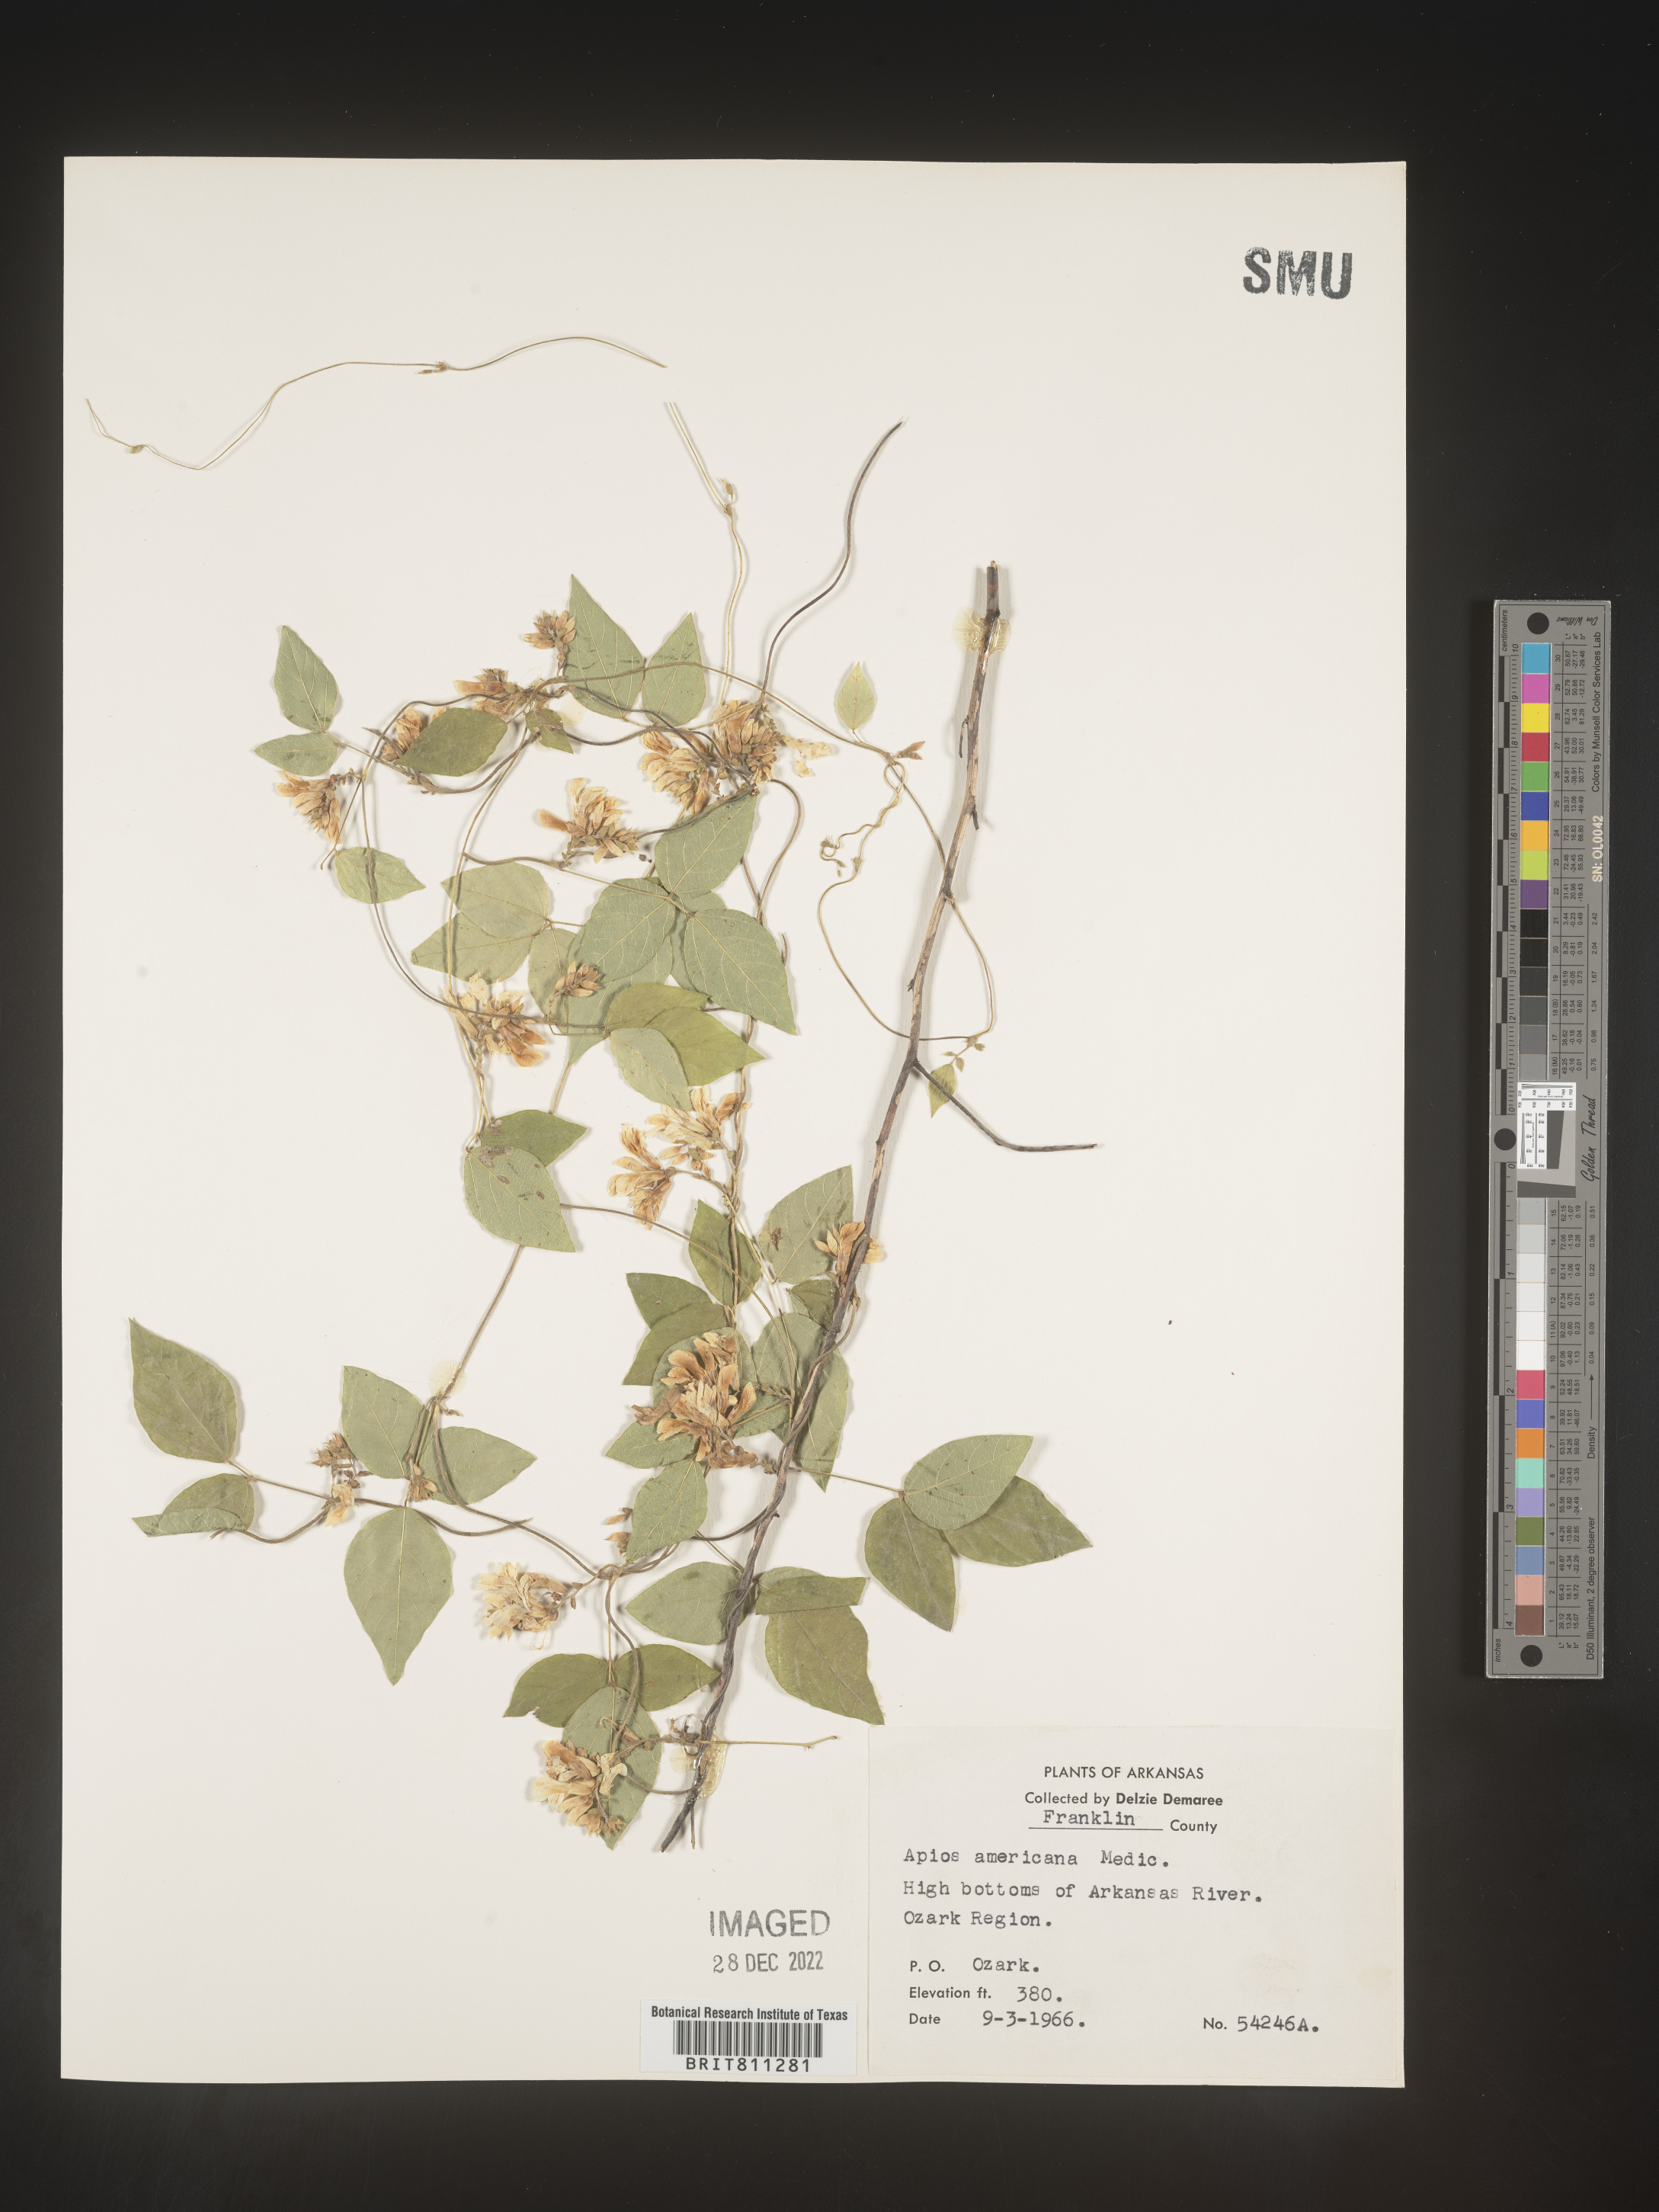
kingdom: Plantae
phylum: Tracheophyta
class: Magnoliopsida
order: Fabales
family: Fabaceae
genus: Amphicarpaea
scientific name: Amphicarpaea bracteata
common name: American hog peanut
